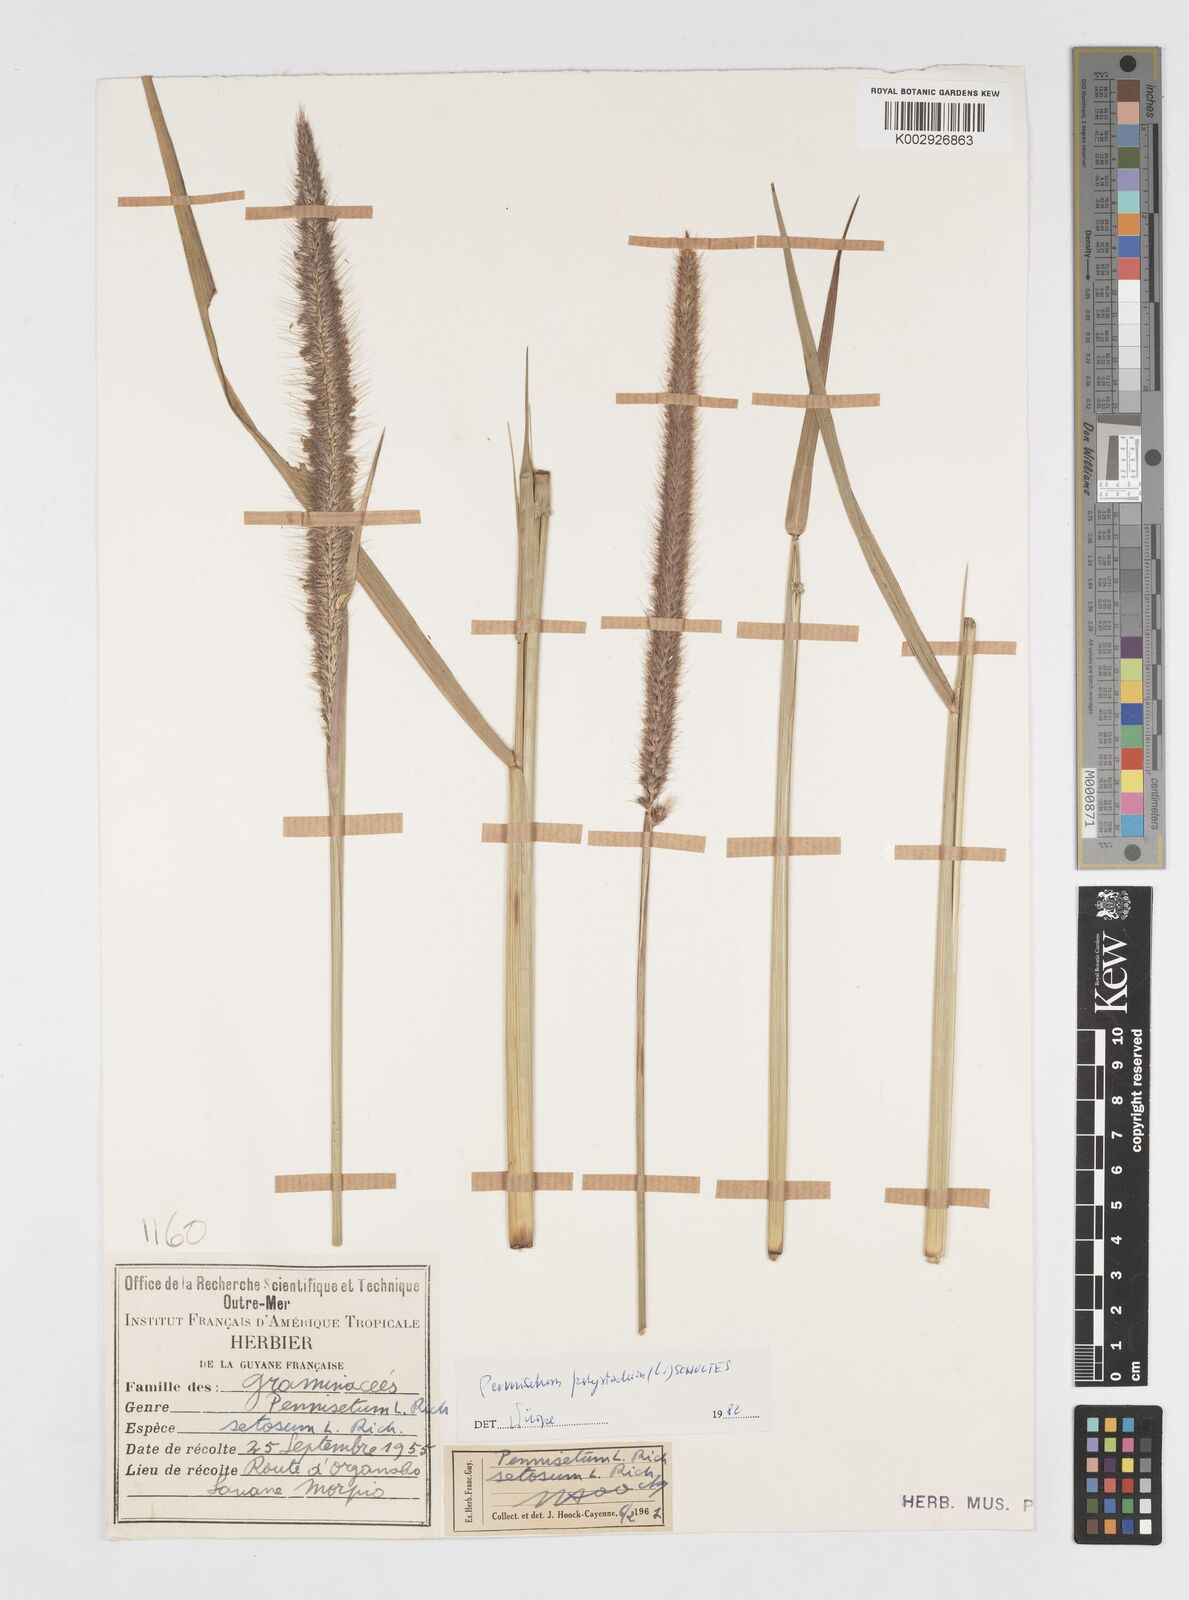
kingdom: Plantae
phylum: Tracheophyta
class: Liliopsida
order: Poales
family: Poaceae
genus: Cenchrus
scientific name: Cenchrus setosus
